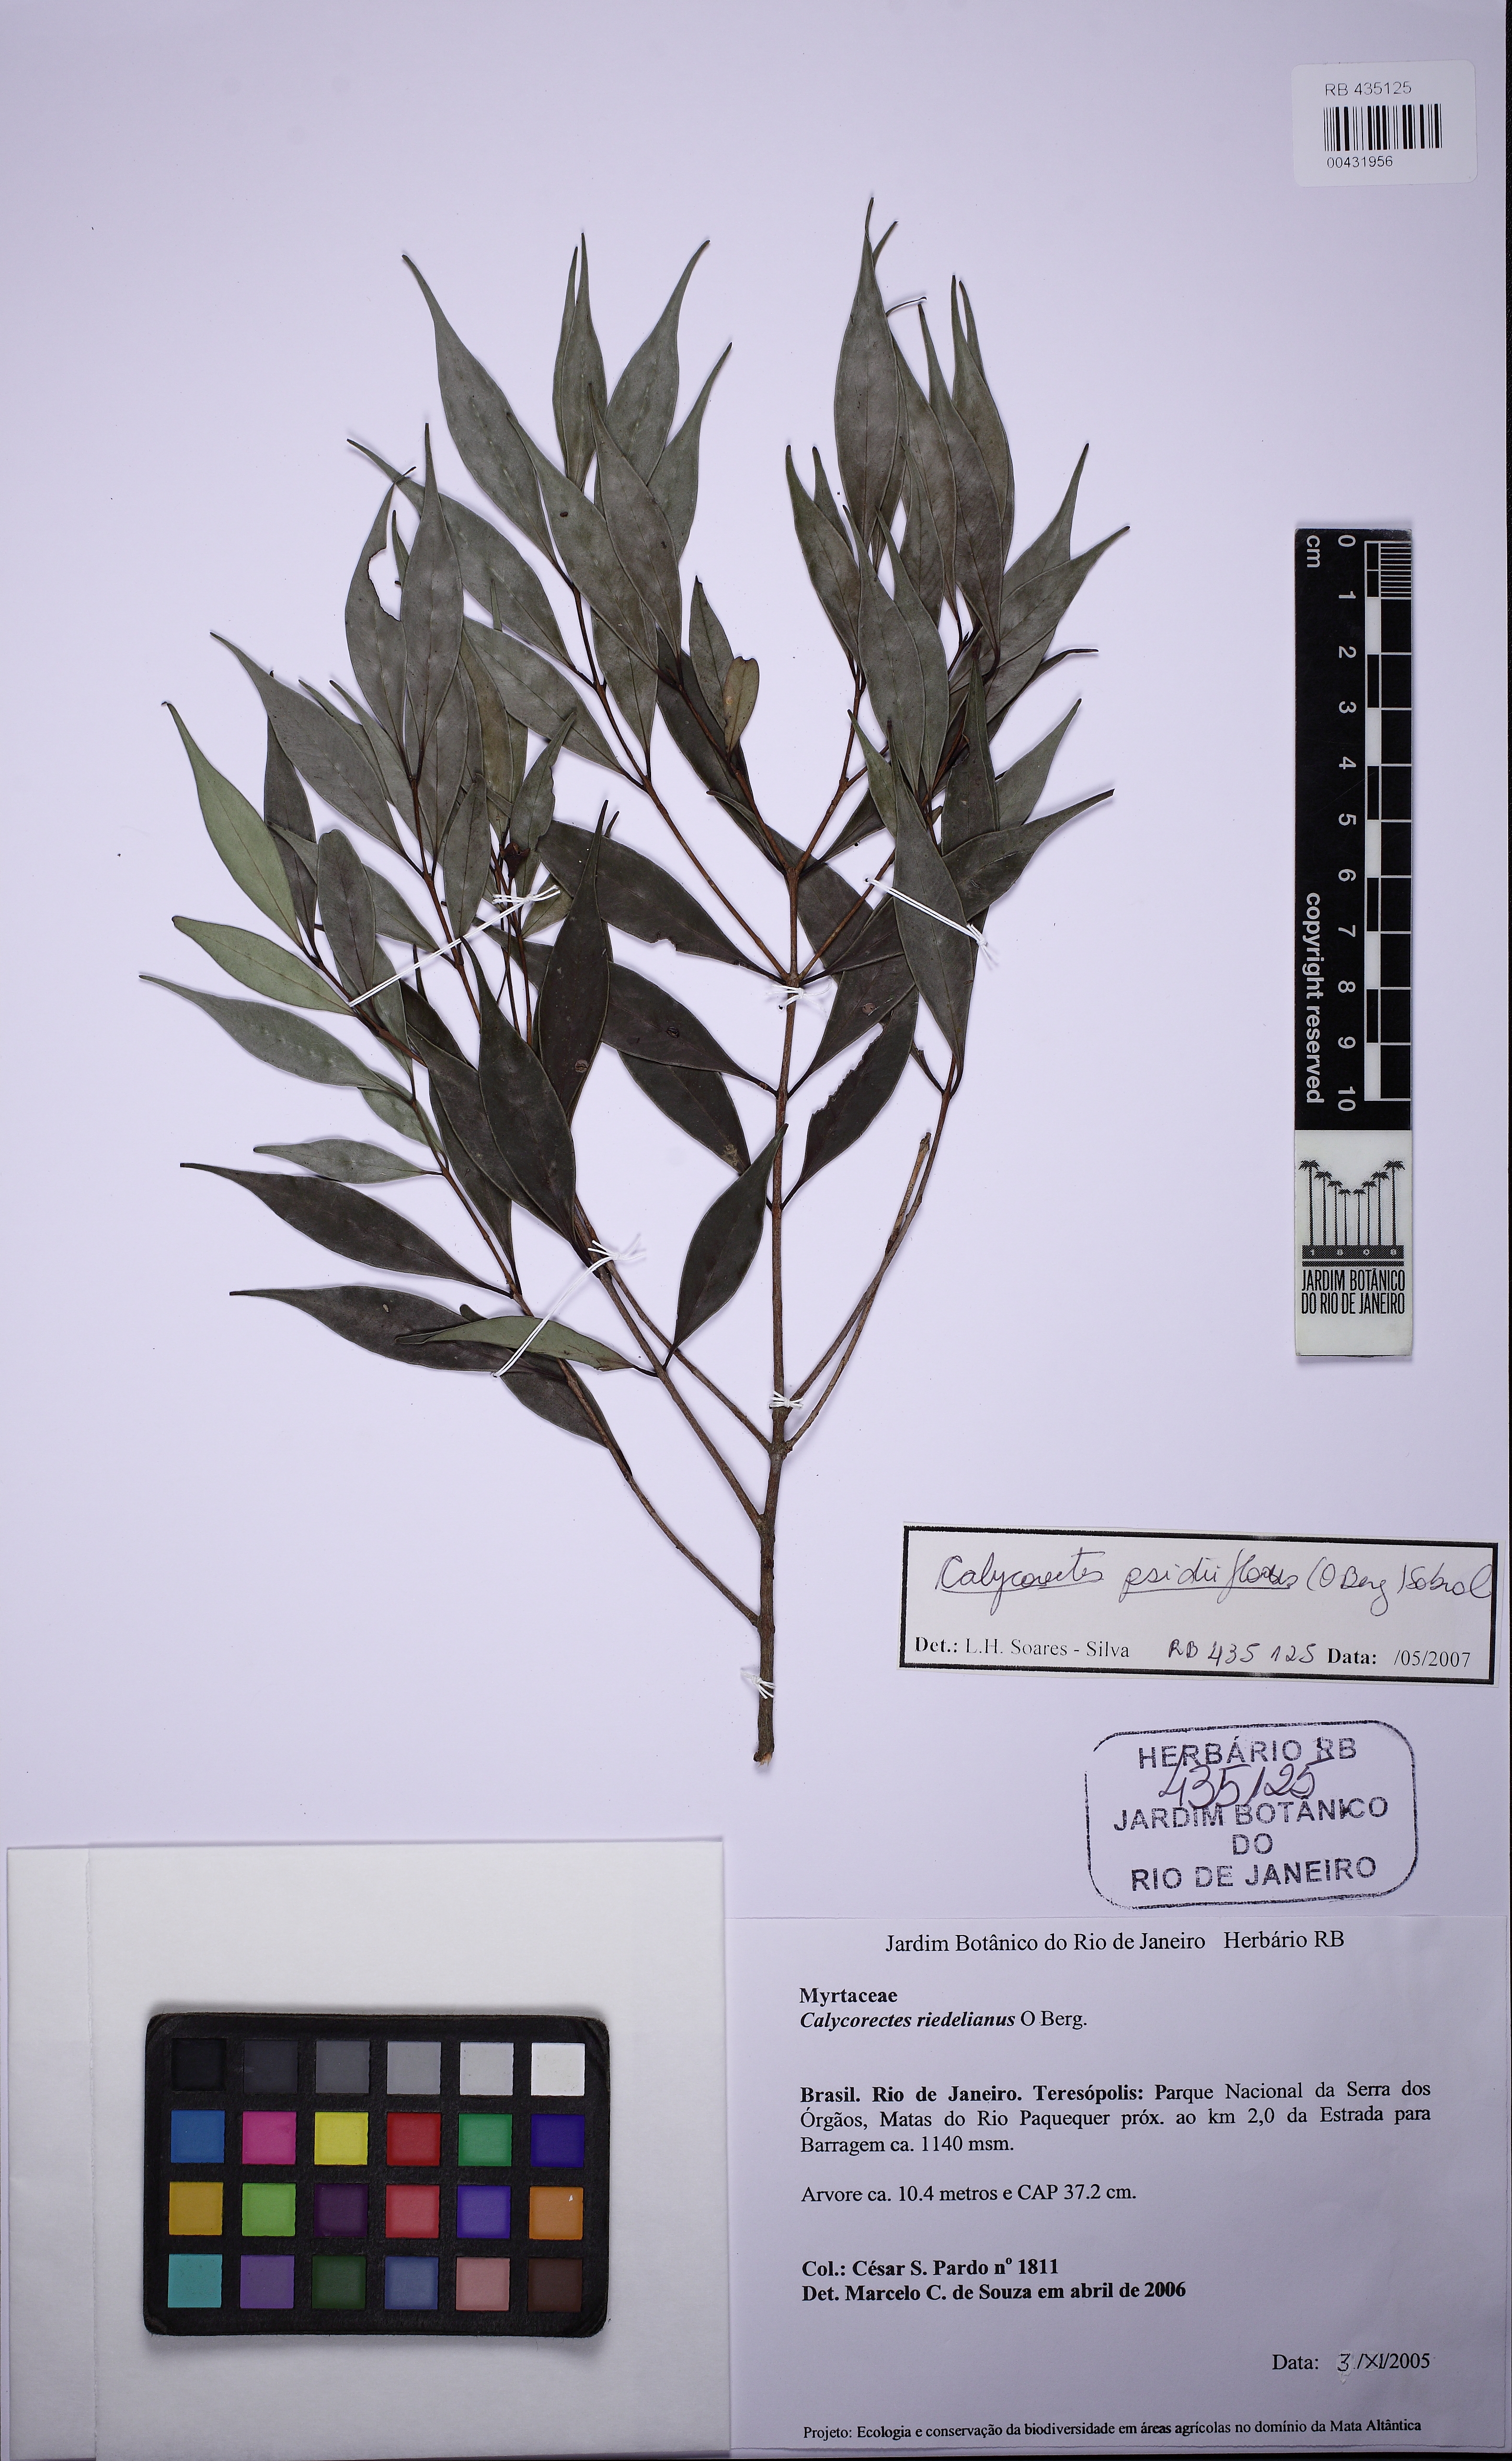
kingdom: Plantae
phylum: Tracheophyta
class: Magnoliopsida
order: Myrtales
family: Myrtaceae
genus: Eugenia
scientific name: Eugenia psidiiflora
